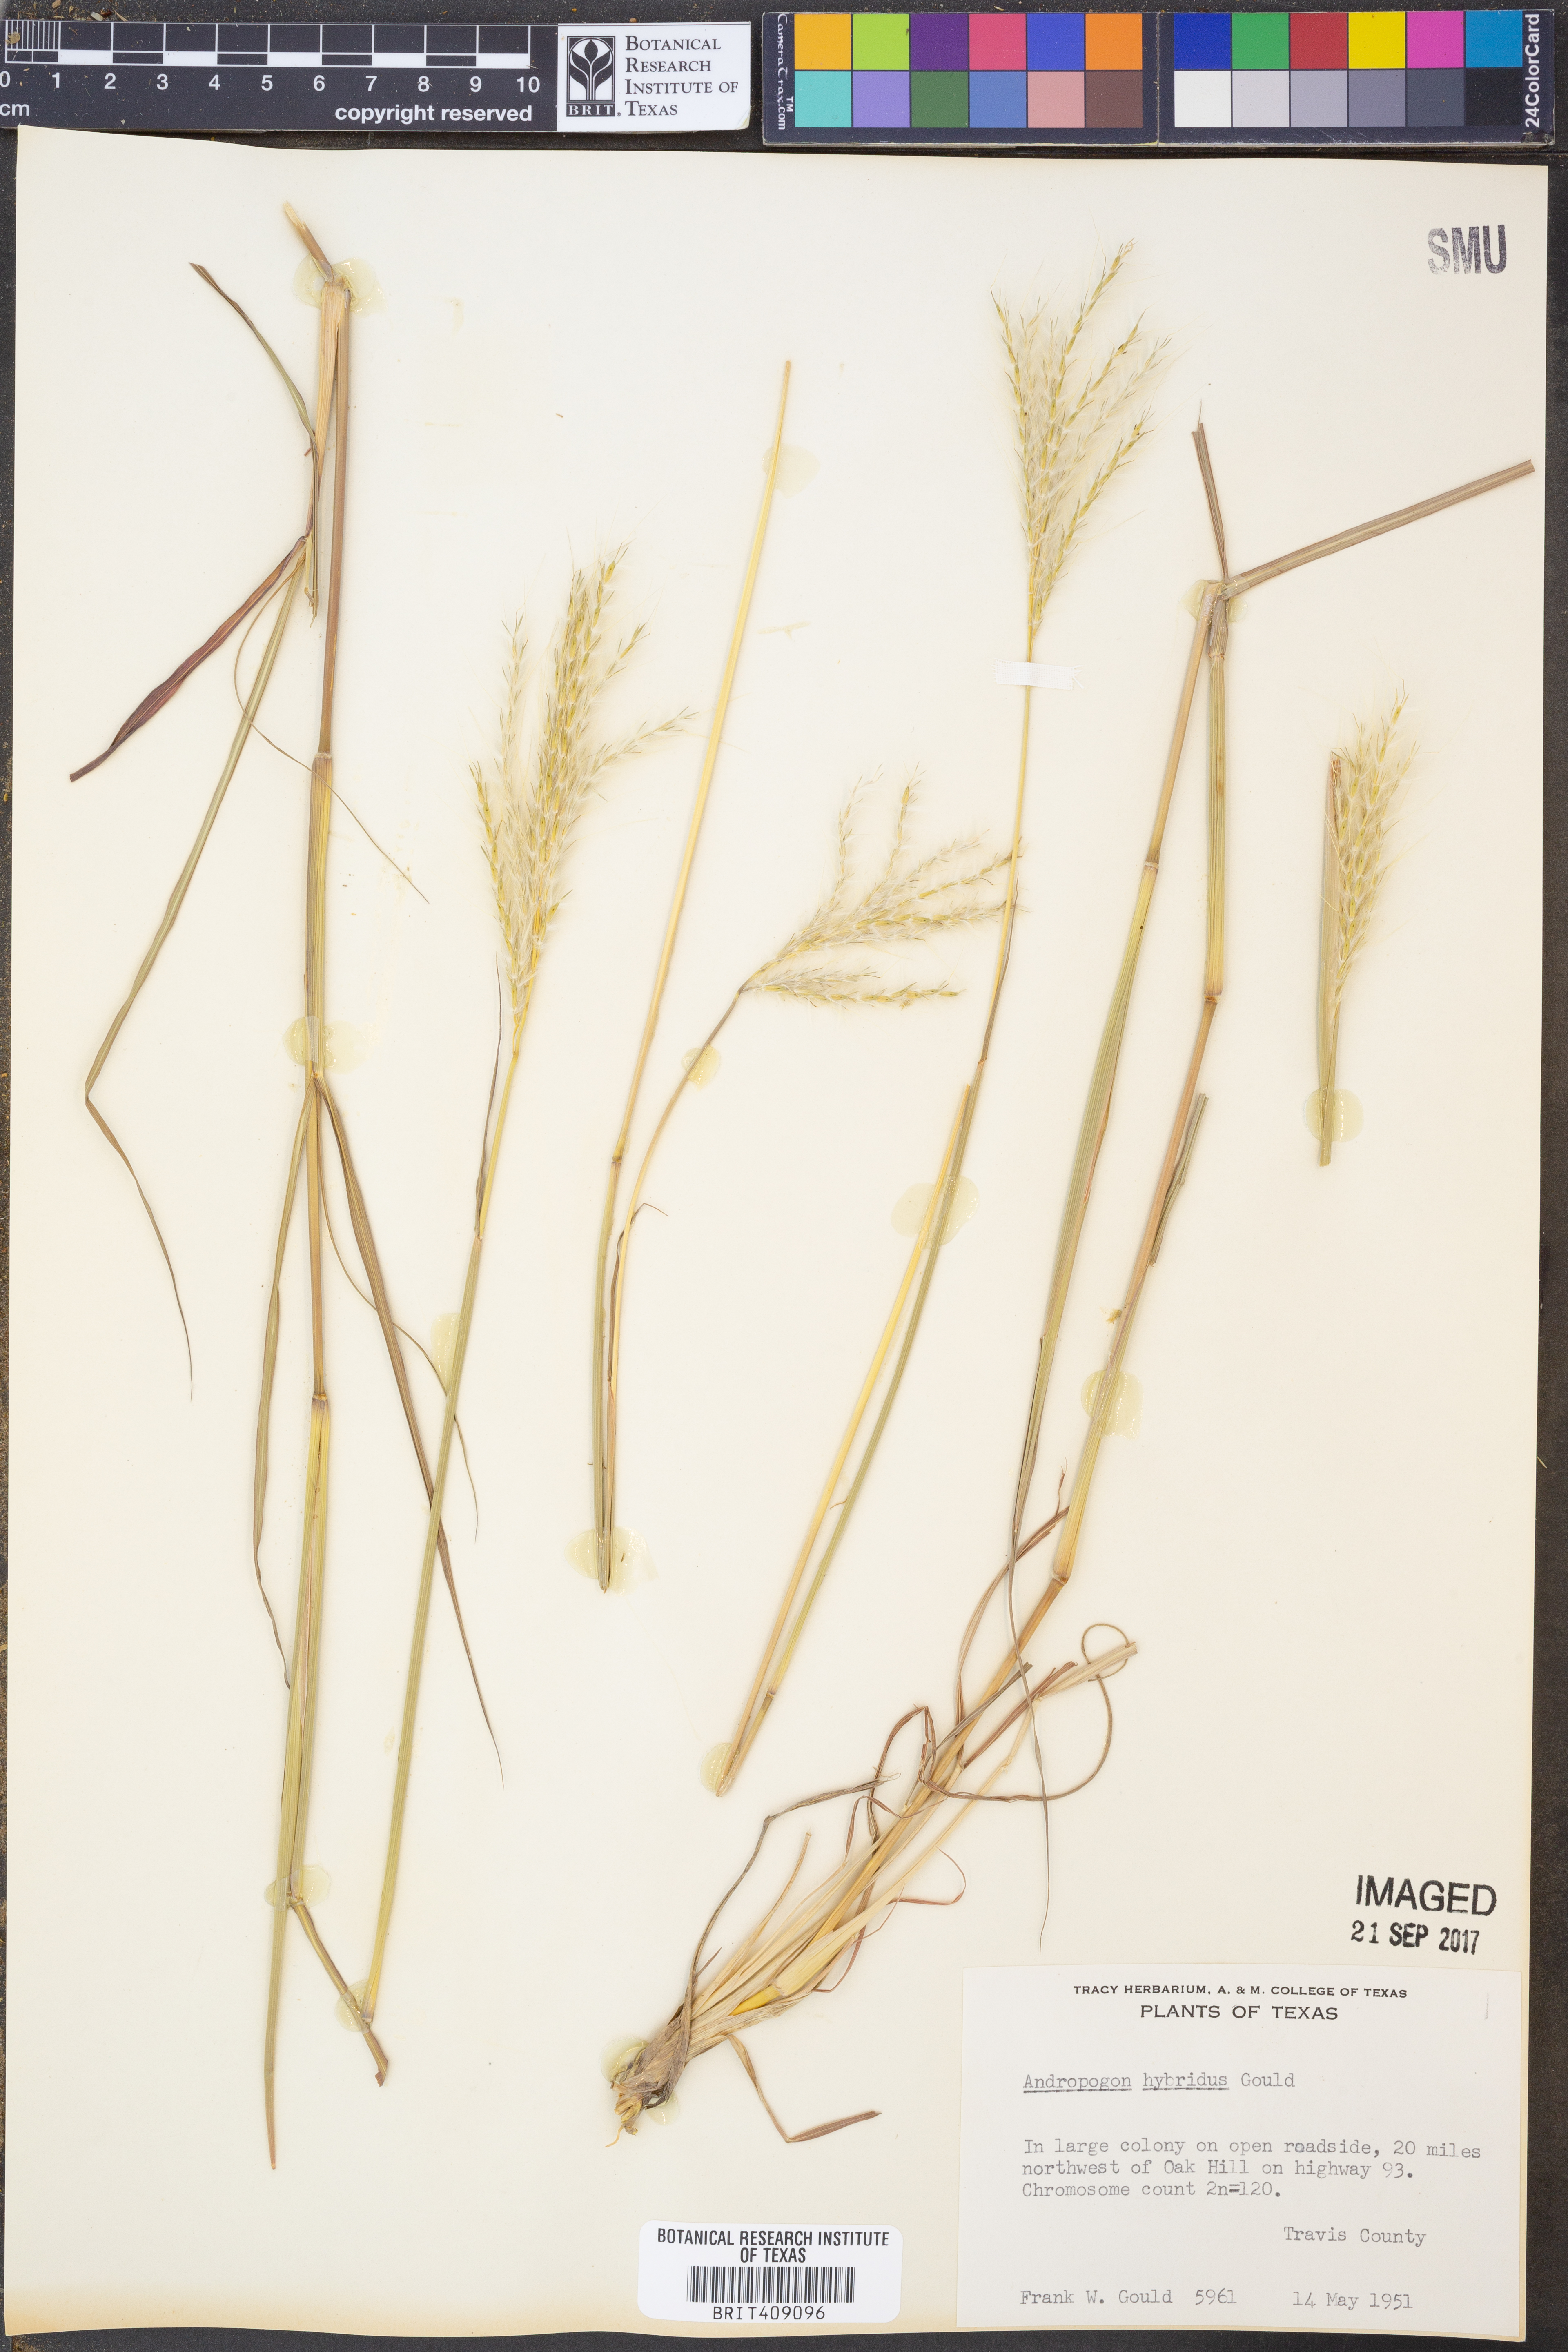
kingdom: Plantae
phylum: Tracheophyta
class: Liliopsida
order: Poales
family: Poaceae
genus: Bothriochloa
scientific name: Bothriochloa hybrida
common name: Hybrid bluestem
